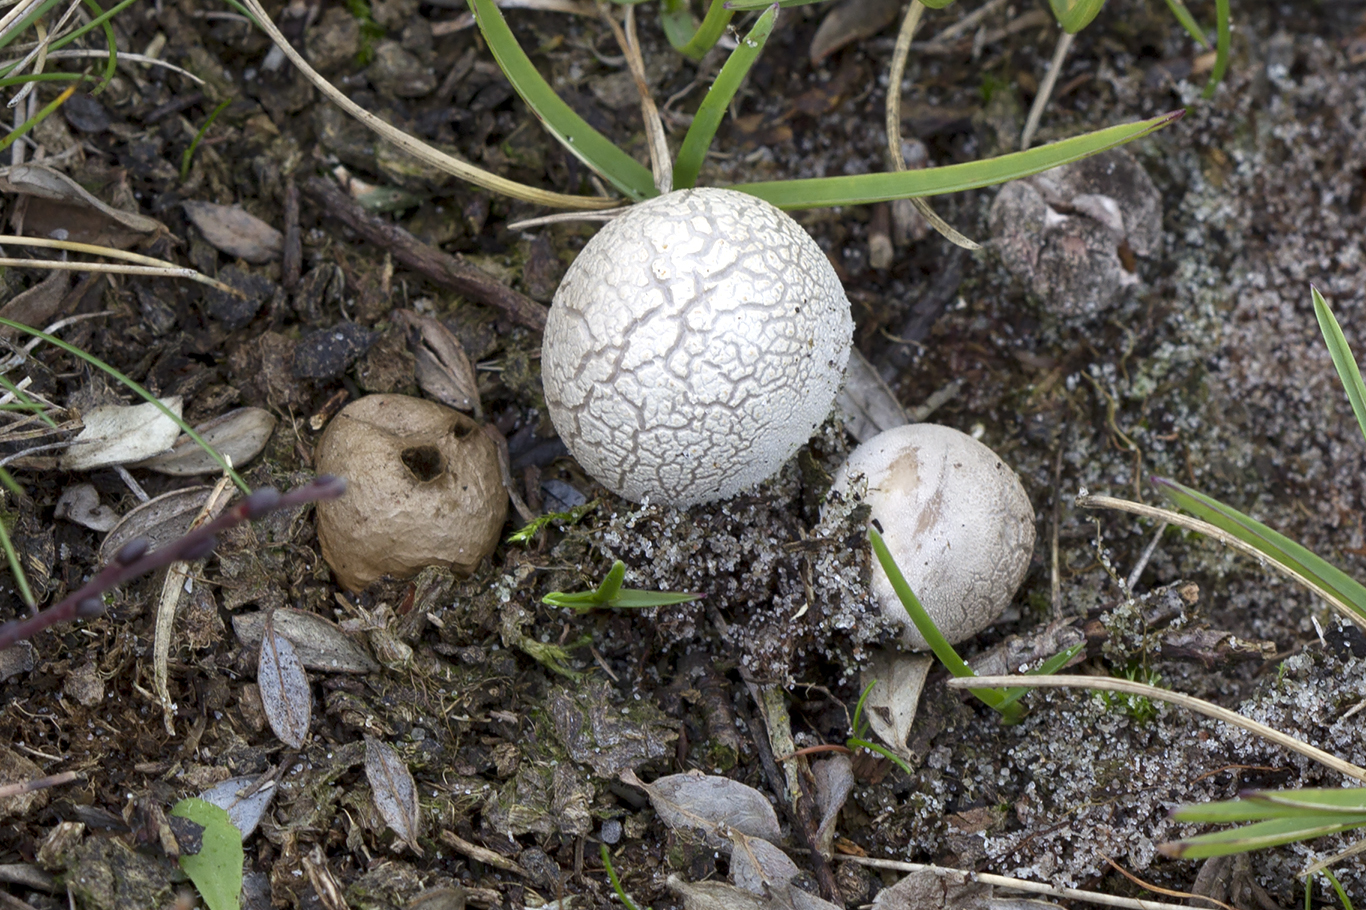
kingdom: Fungi
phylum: Basidiomycota
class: Agaricomycetes
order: Agaricales
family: Lycoperdaceae
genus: Bovista
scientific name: Bovista aestivalis
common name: klit-bovist
